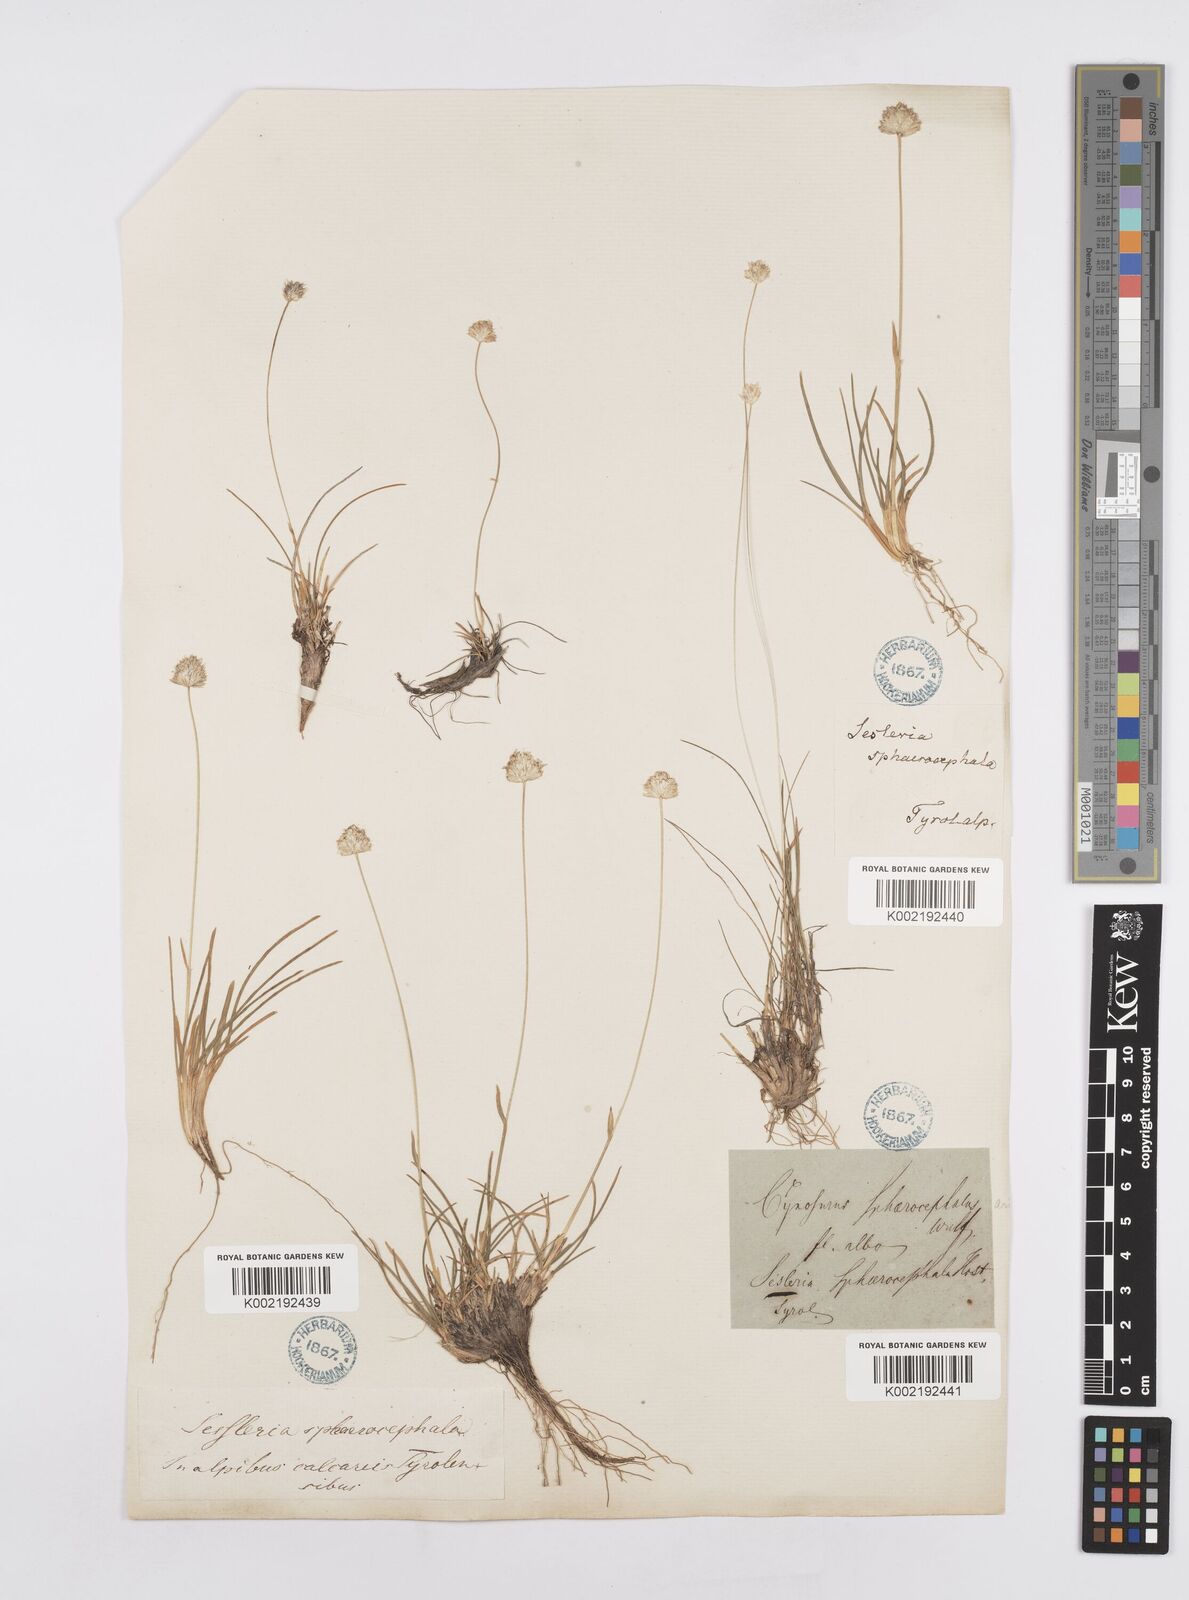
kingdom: Plantae
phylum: Tracheophyta
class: Liliopsida
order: Poales
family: Poaceae
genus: Sesleriella
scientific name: Sesleriella sphaerocephala
